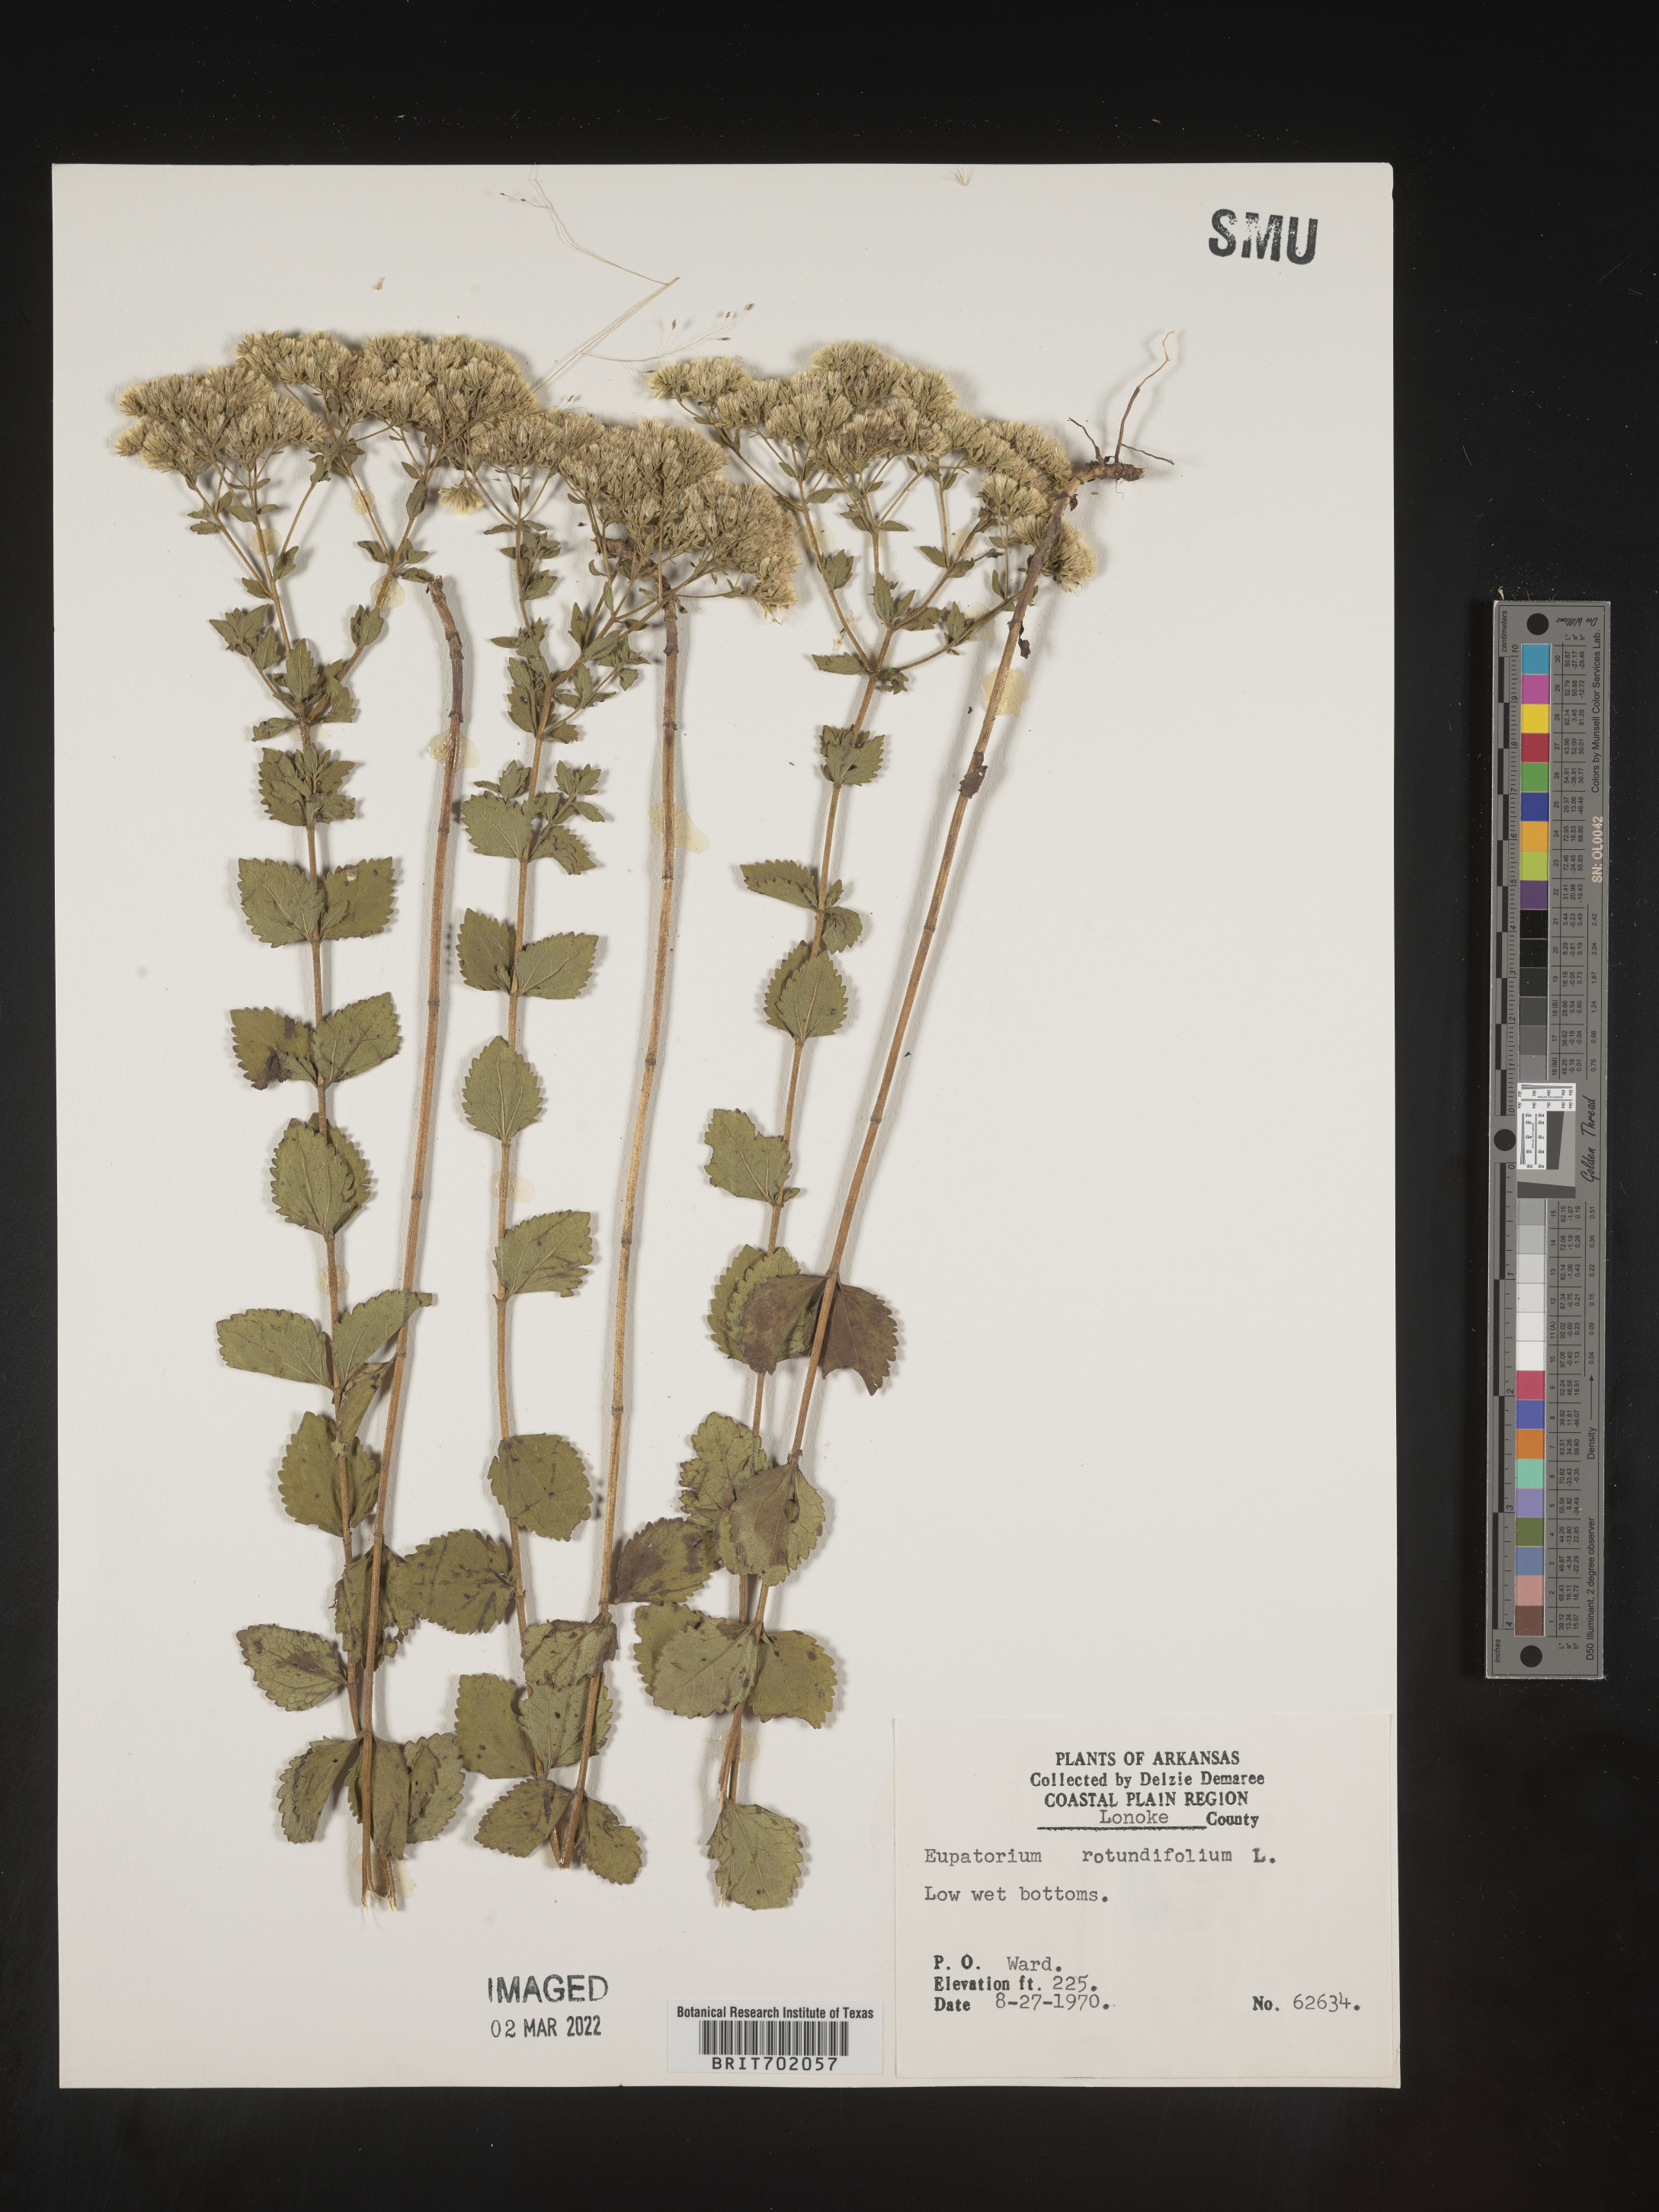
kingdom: Plantae
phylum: Tracheophyta
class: Magnoliopsida
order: Asterales
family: Asteraceae
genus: Eupatorium
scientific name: Eupatorium rotundifolium
